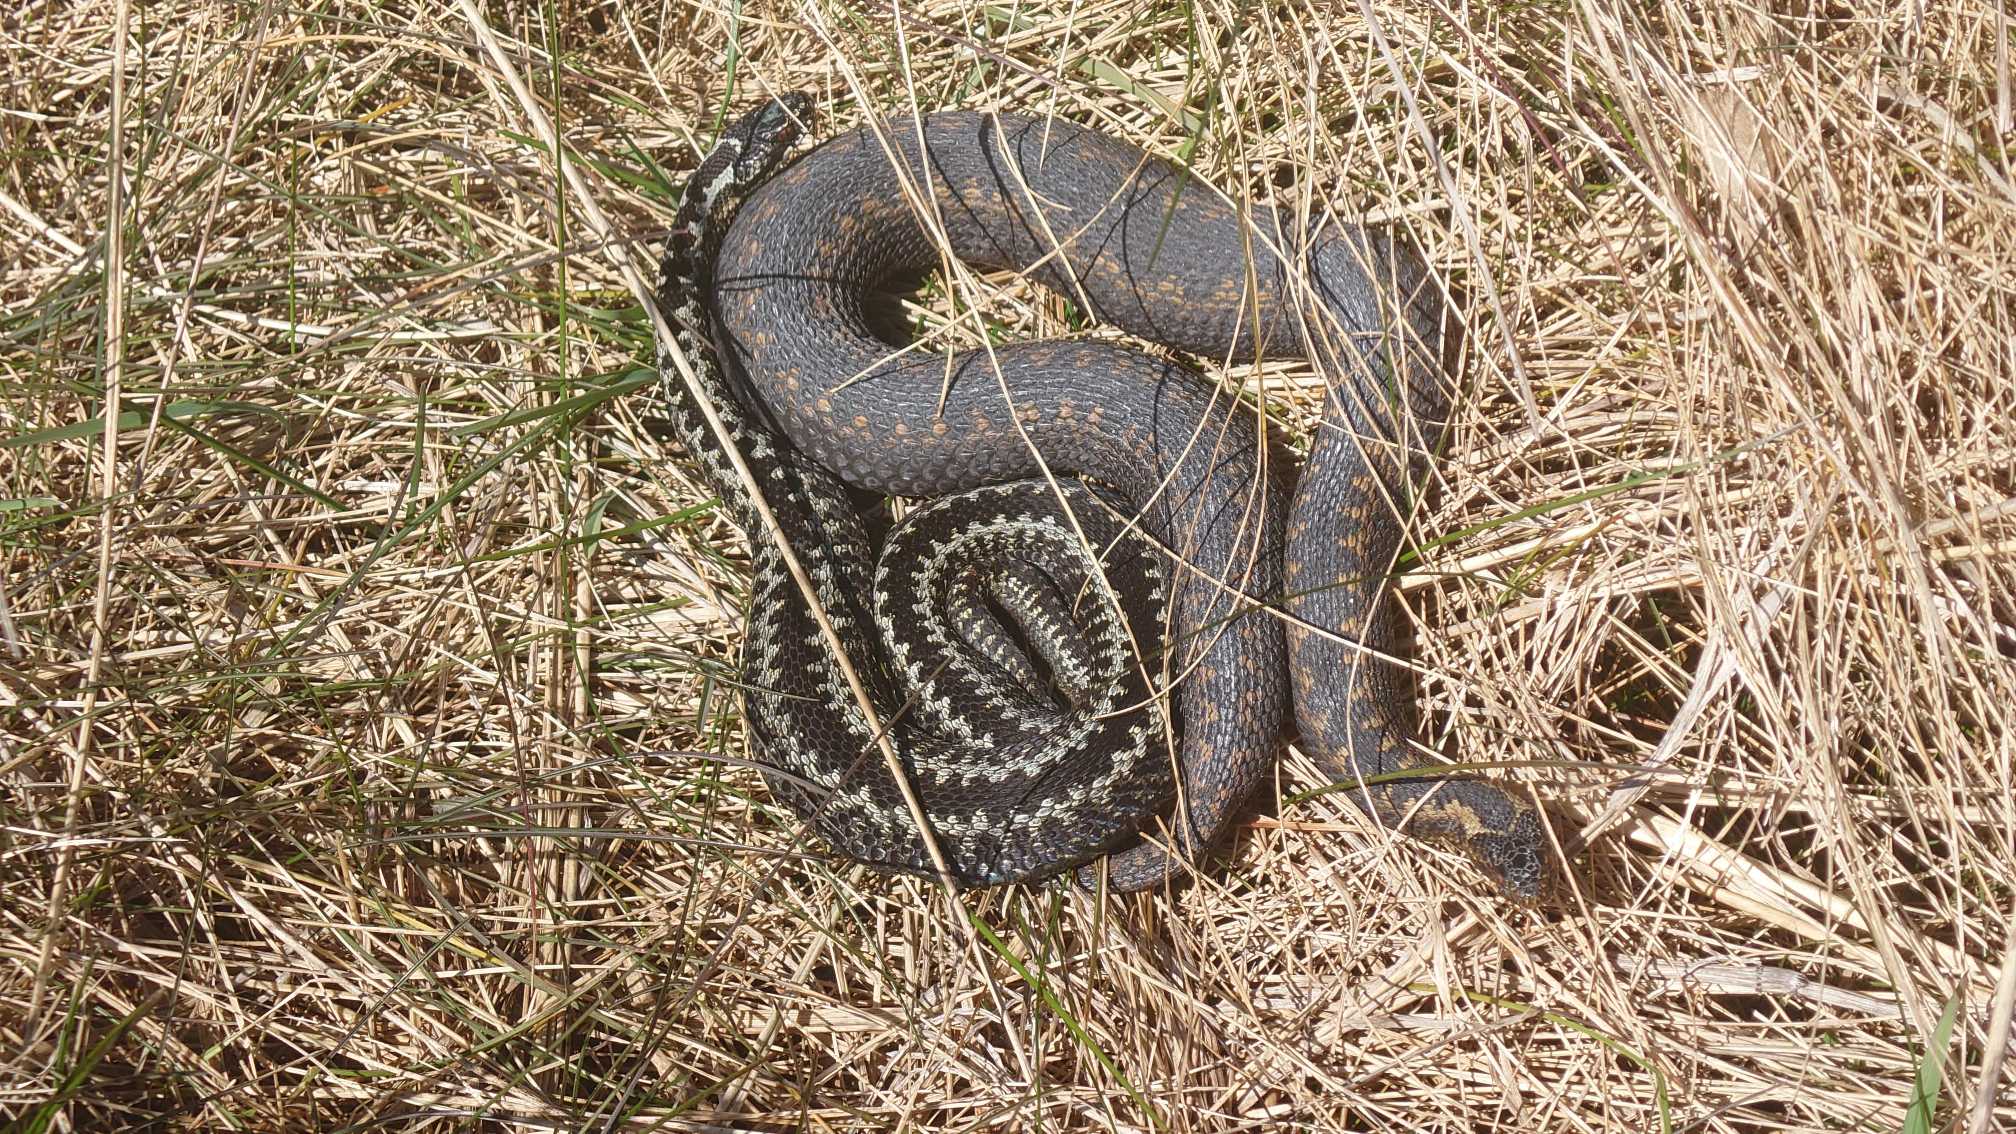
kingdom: Animalia
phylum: Chordata
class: Squamata
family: Viperidae
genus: Vipera
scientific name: Vipera berus
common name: Hugorm
